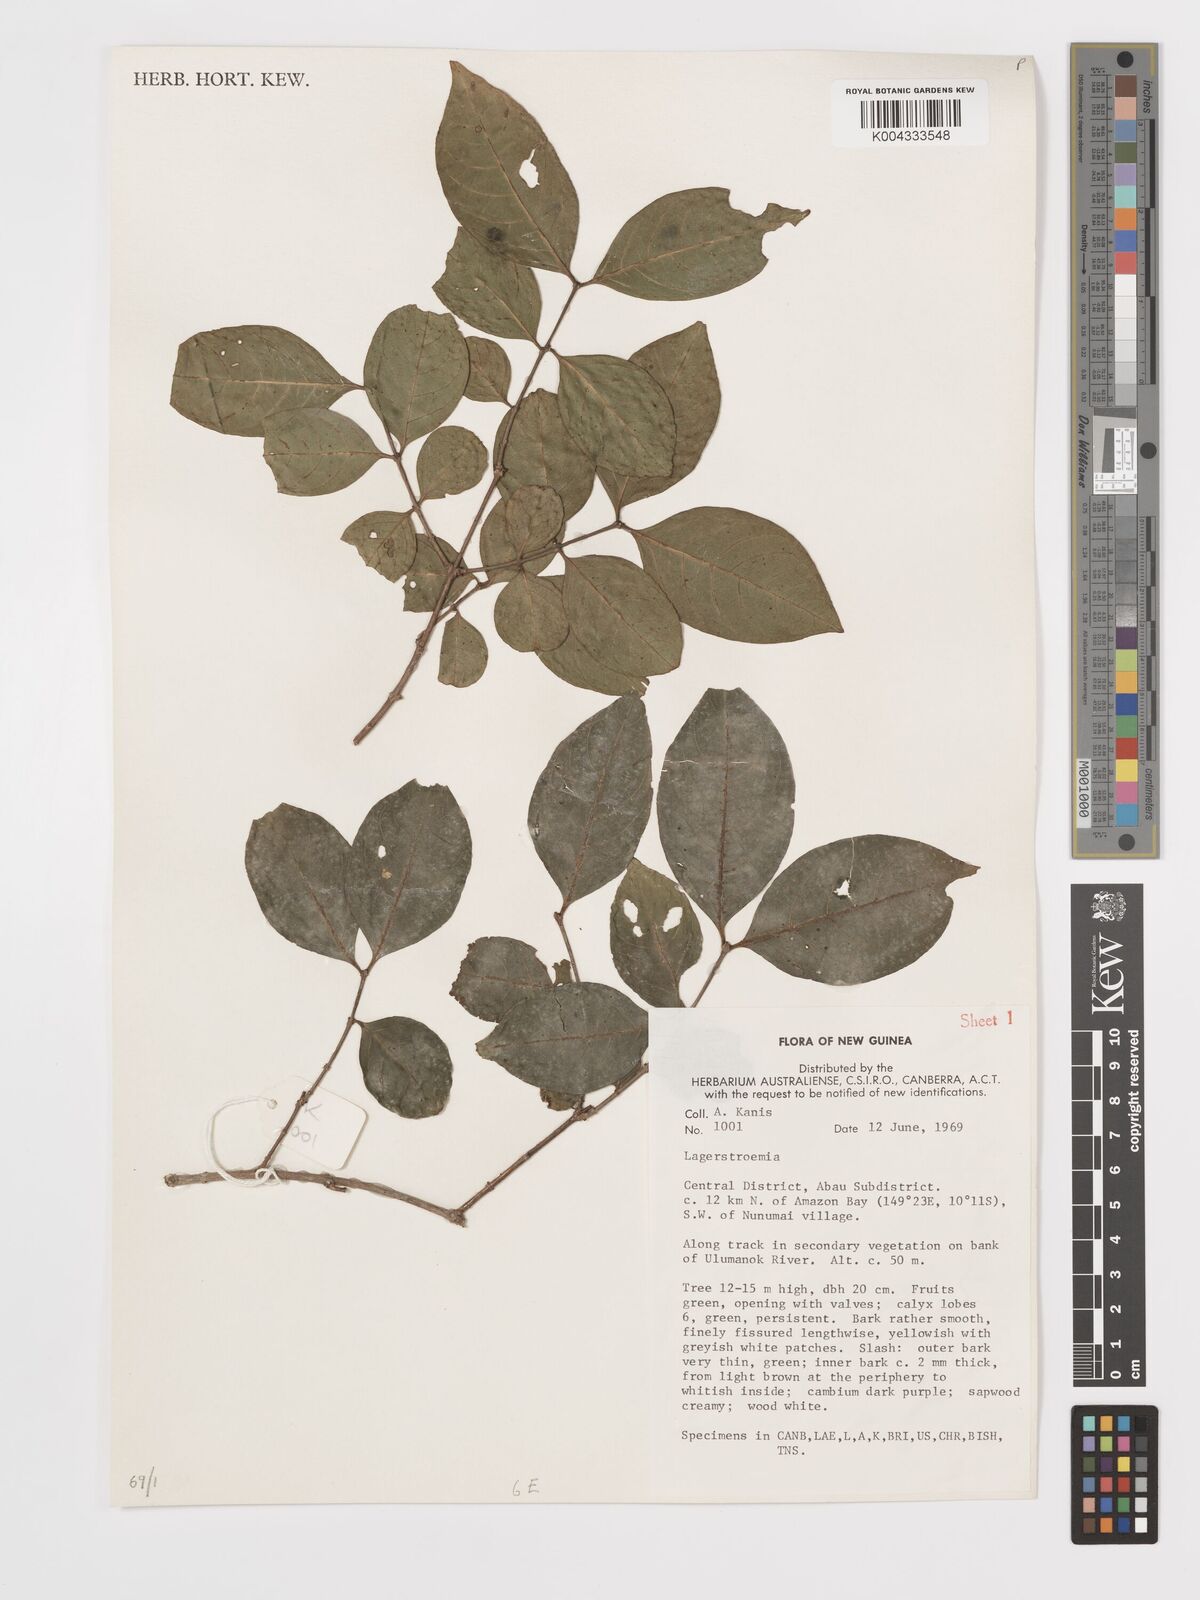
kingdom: Plantae
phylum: Tracheophyta
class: Magnoliopsida
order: Myrtales
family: Lythraceae
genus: Lagerstroemia
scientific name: Lagerstroemia
